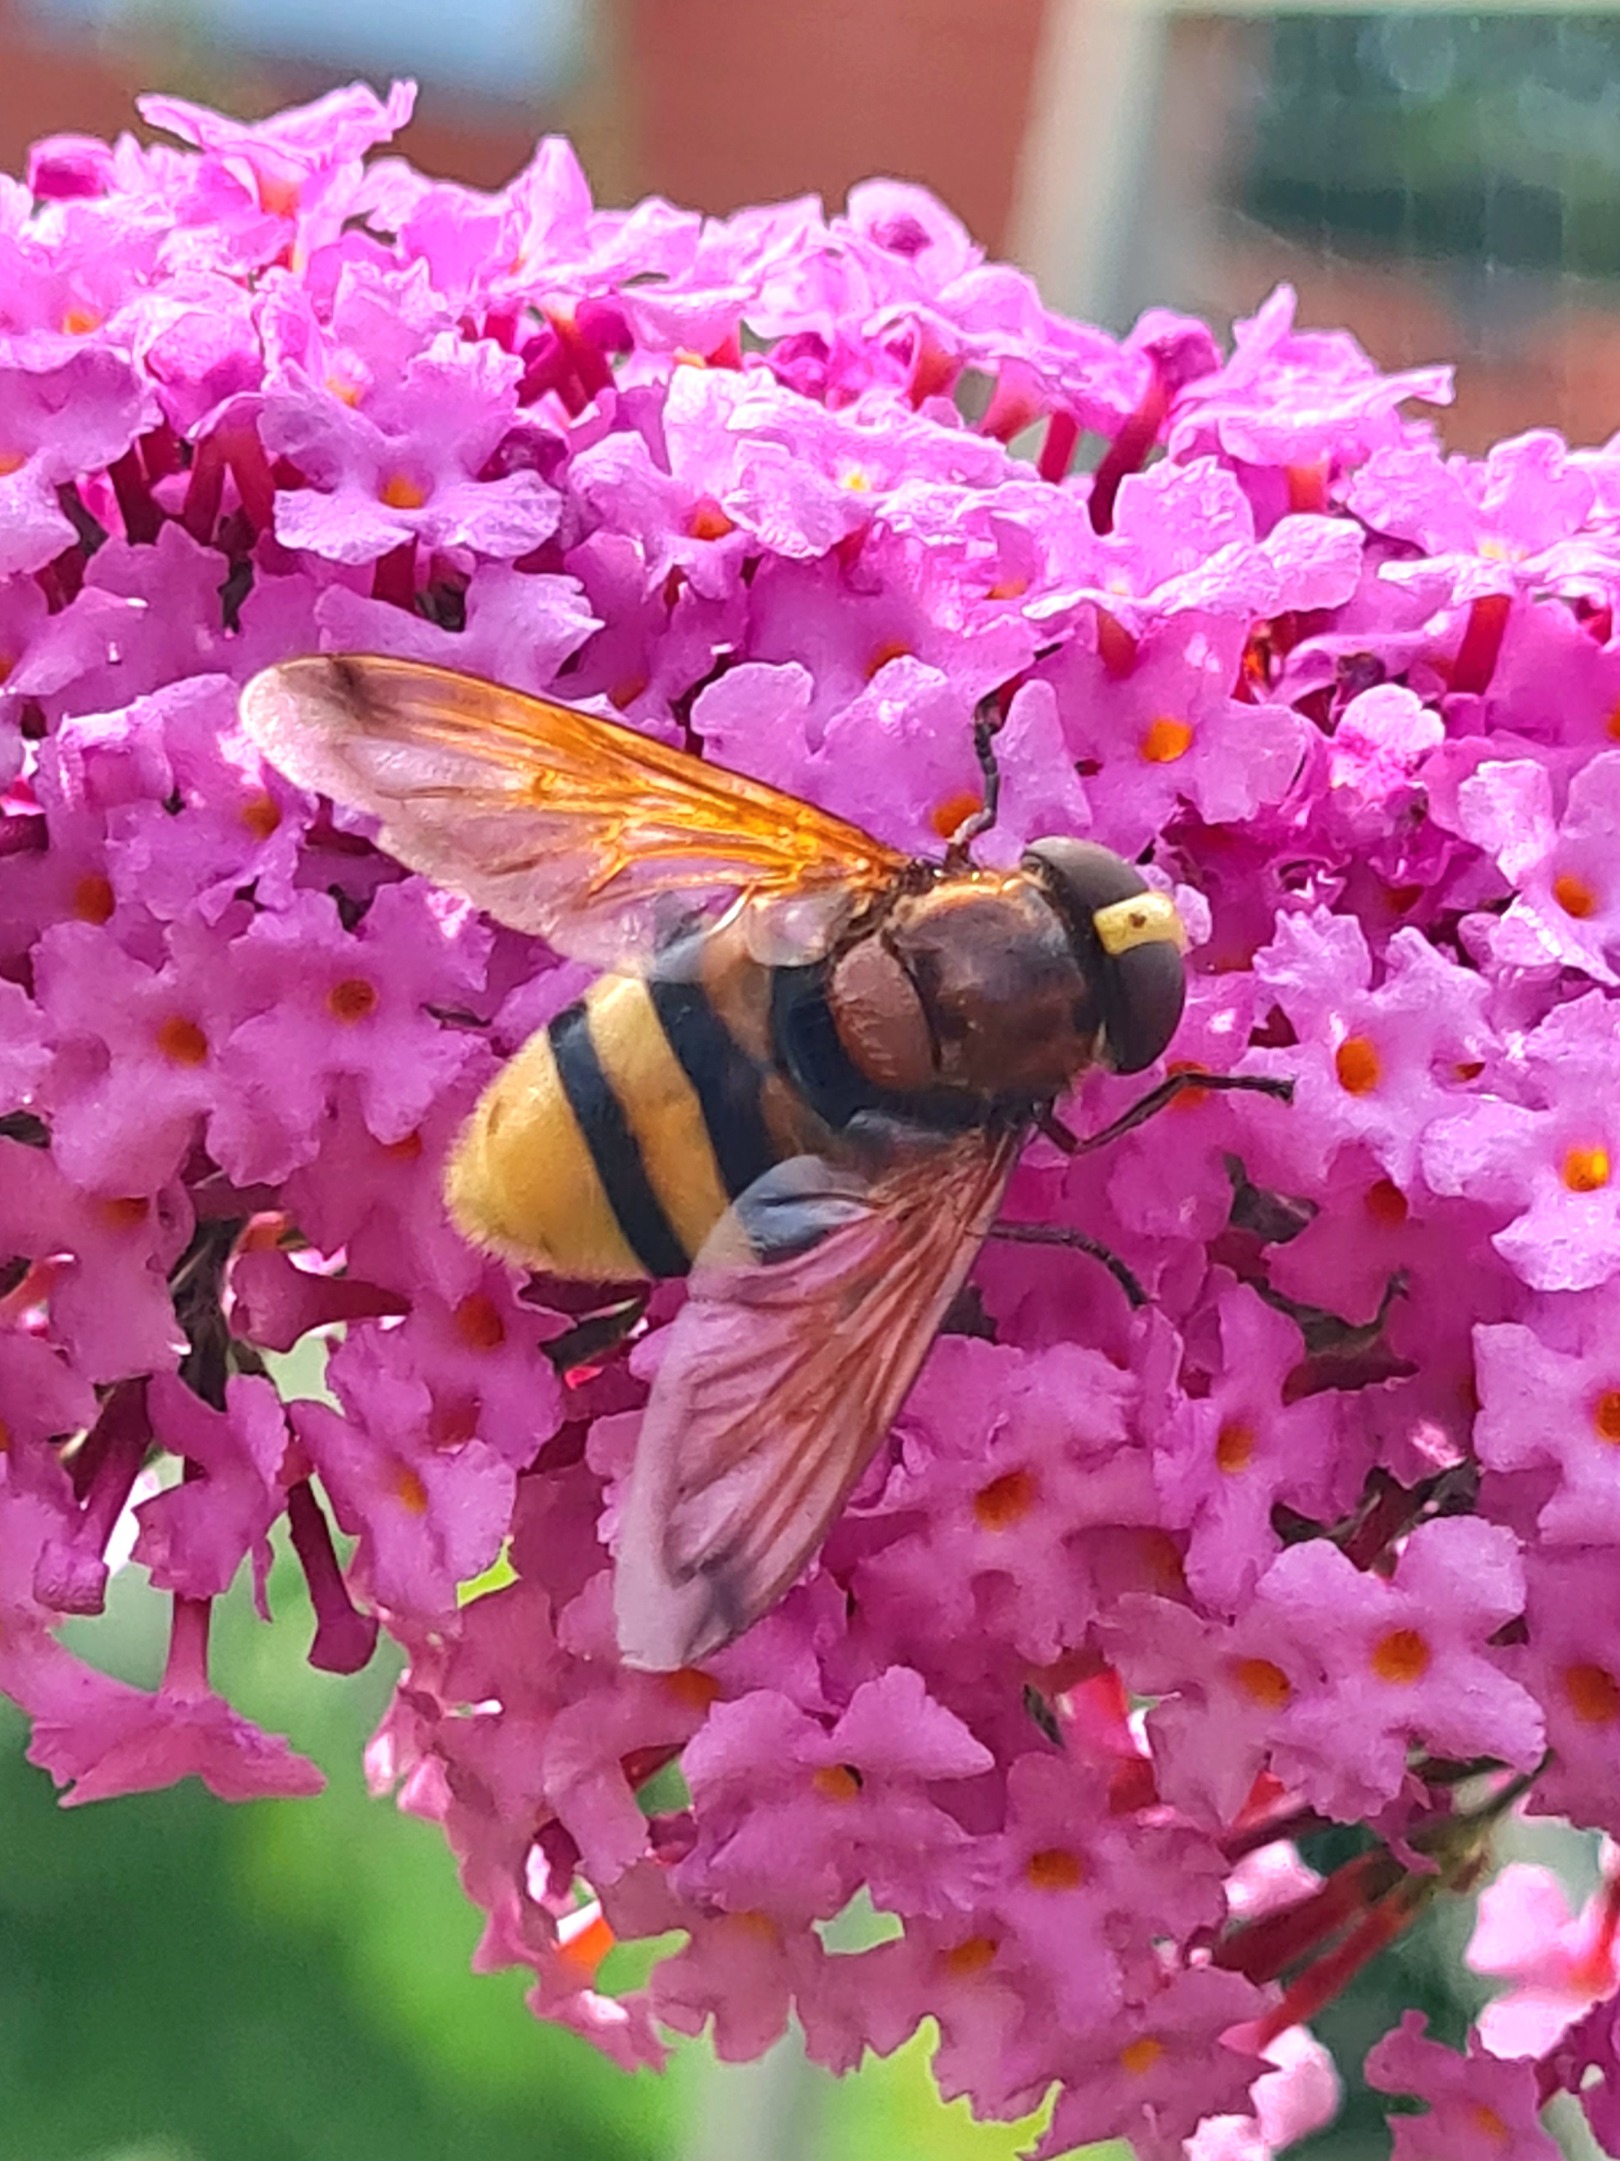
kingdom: Animalia
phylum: Arthropoda
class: Insecta
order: Diptera
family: Syrphidae
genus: Volucella
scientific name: Volucella zonaria
